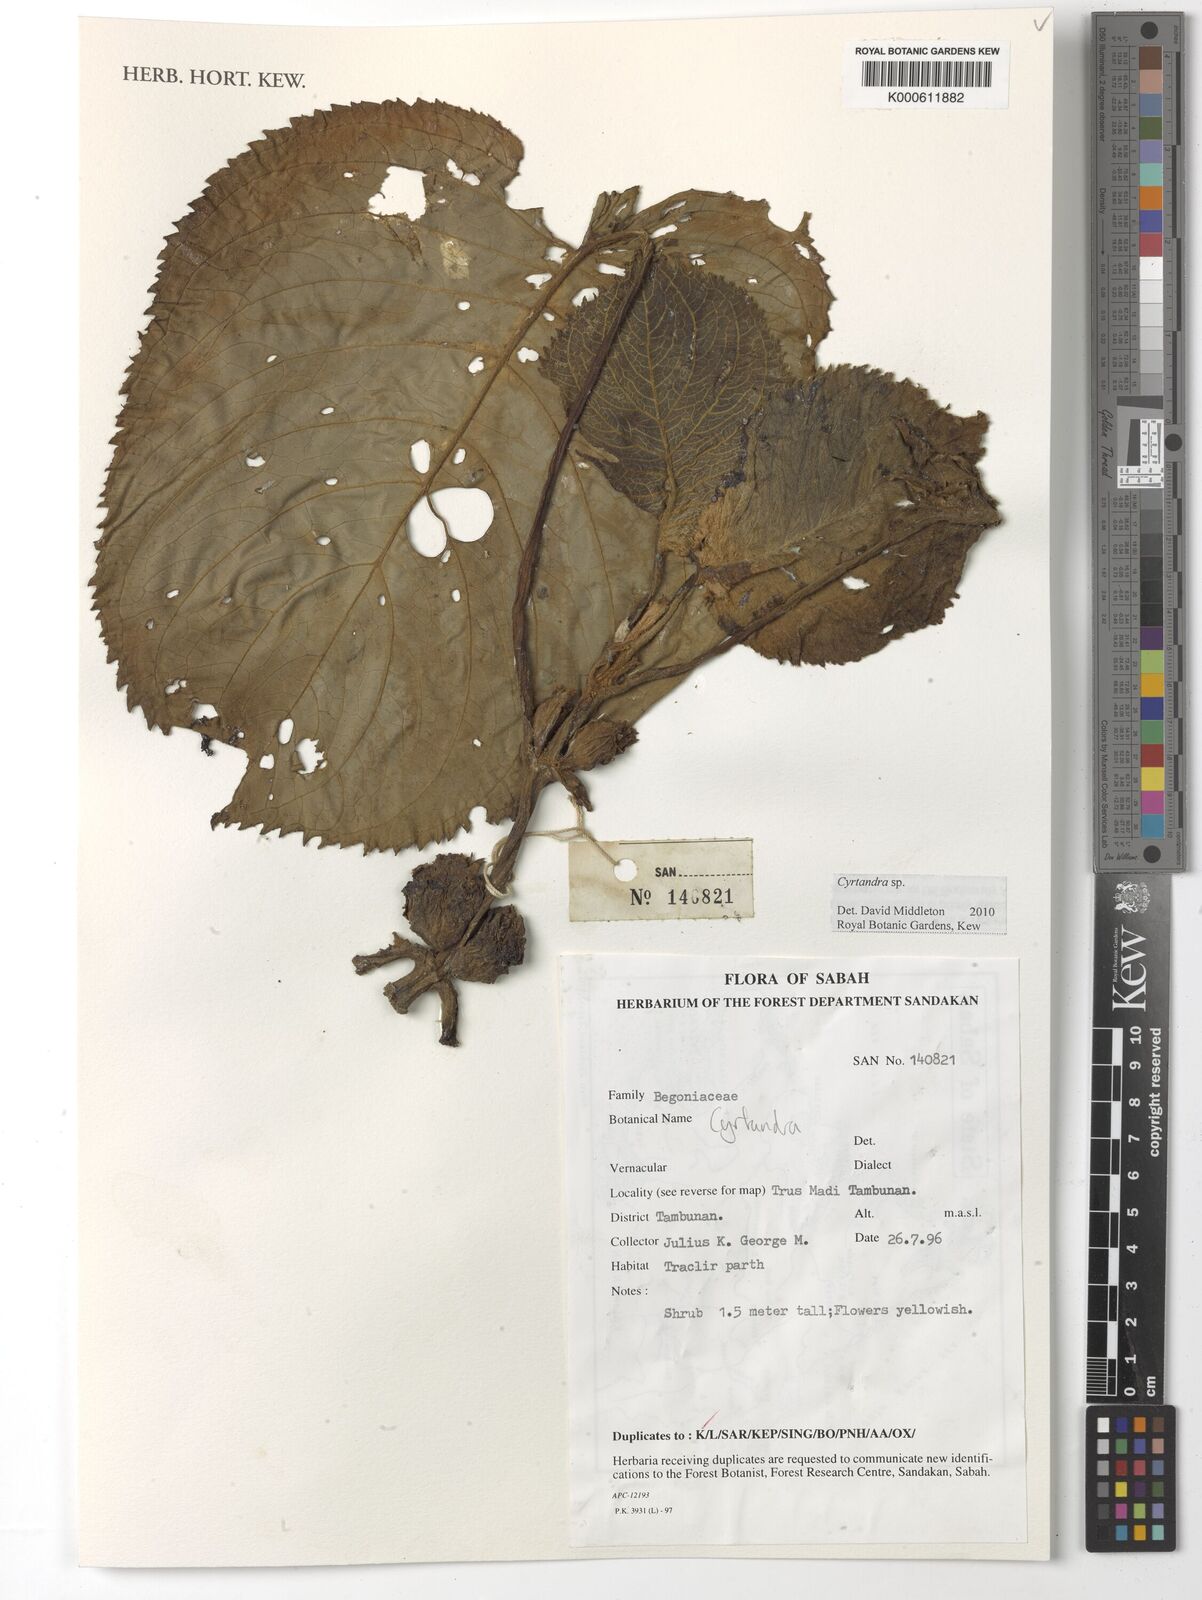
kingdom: Plantae
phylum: Tracheophyta
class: Magnoliopsida
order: Lamiales
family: Gesneriaceae
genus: Cyrtandra
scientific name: Cyrtandra
